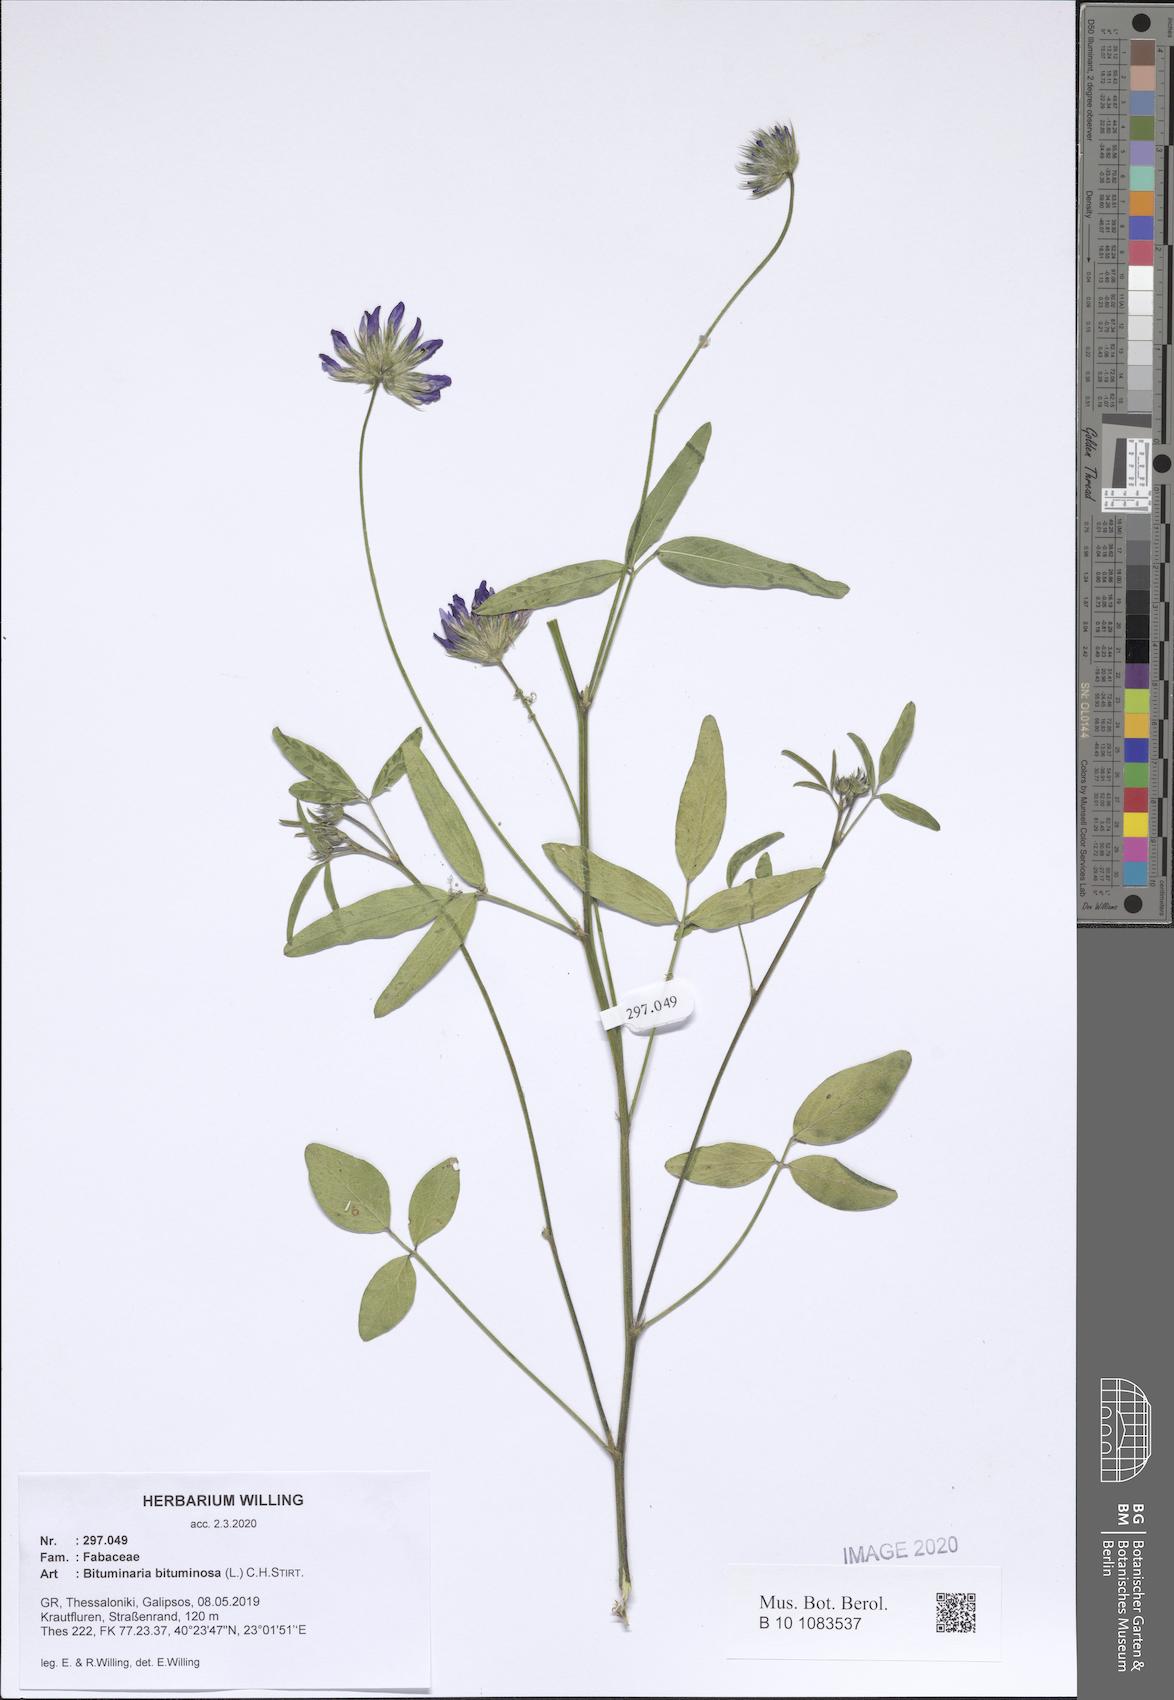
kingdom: Plantae
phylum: Tracheophyta
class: Magnoliopsida
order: Fabales
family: Fabaceae
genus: Bituminaria
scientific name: Bituminaria bituminosa
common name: Arabian pea
